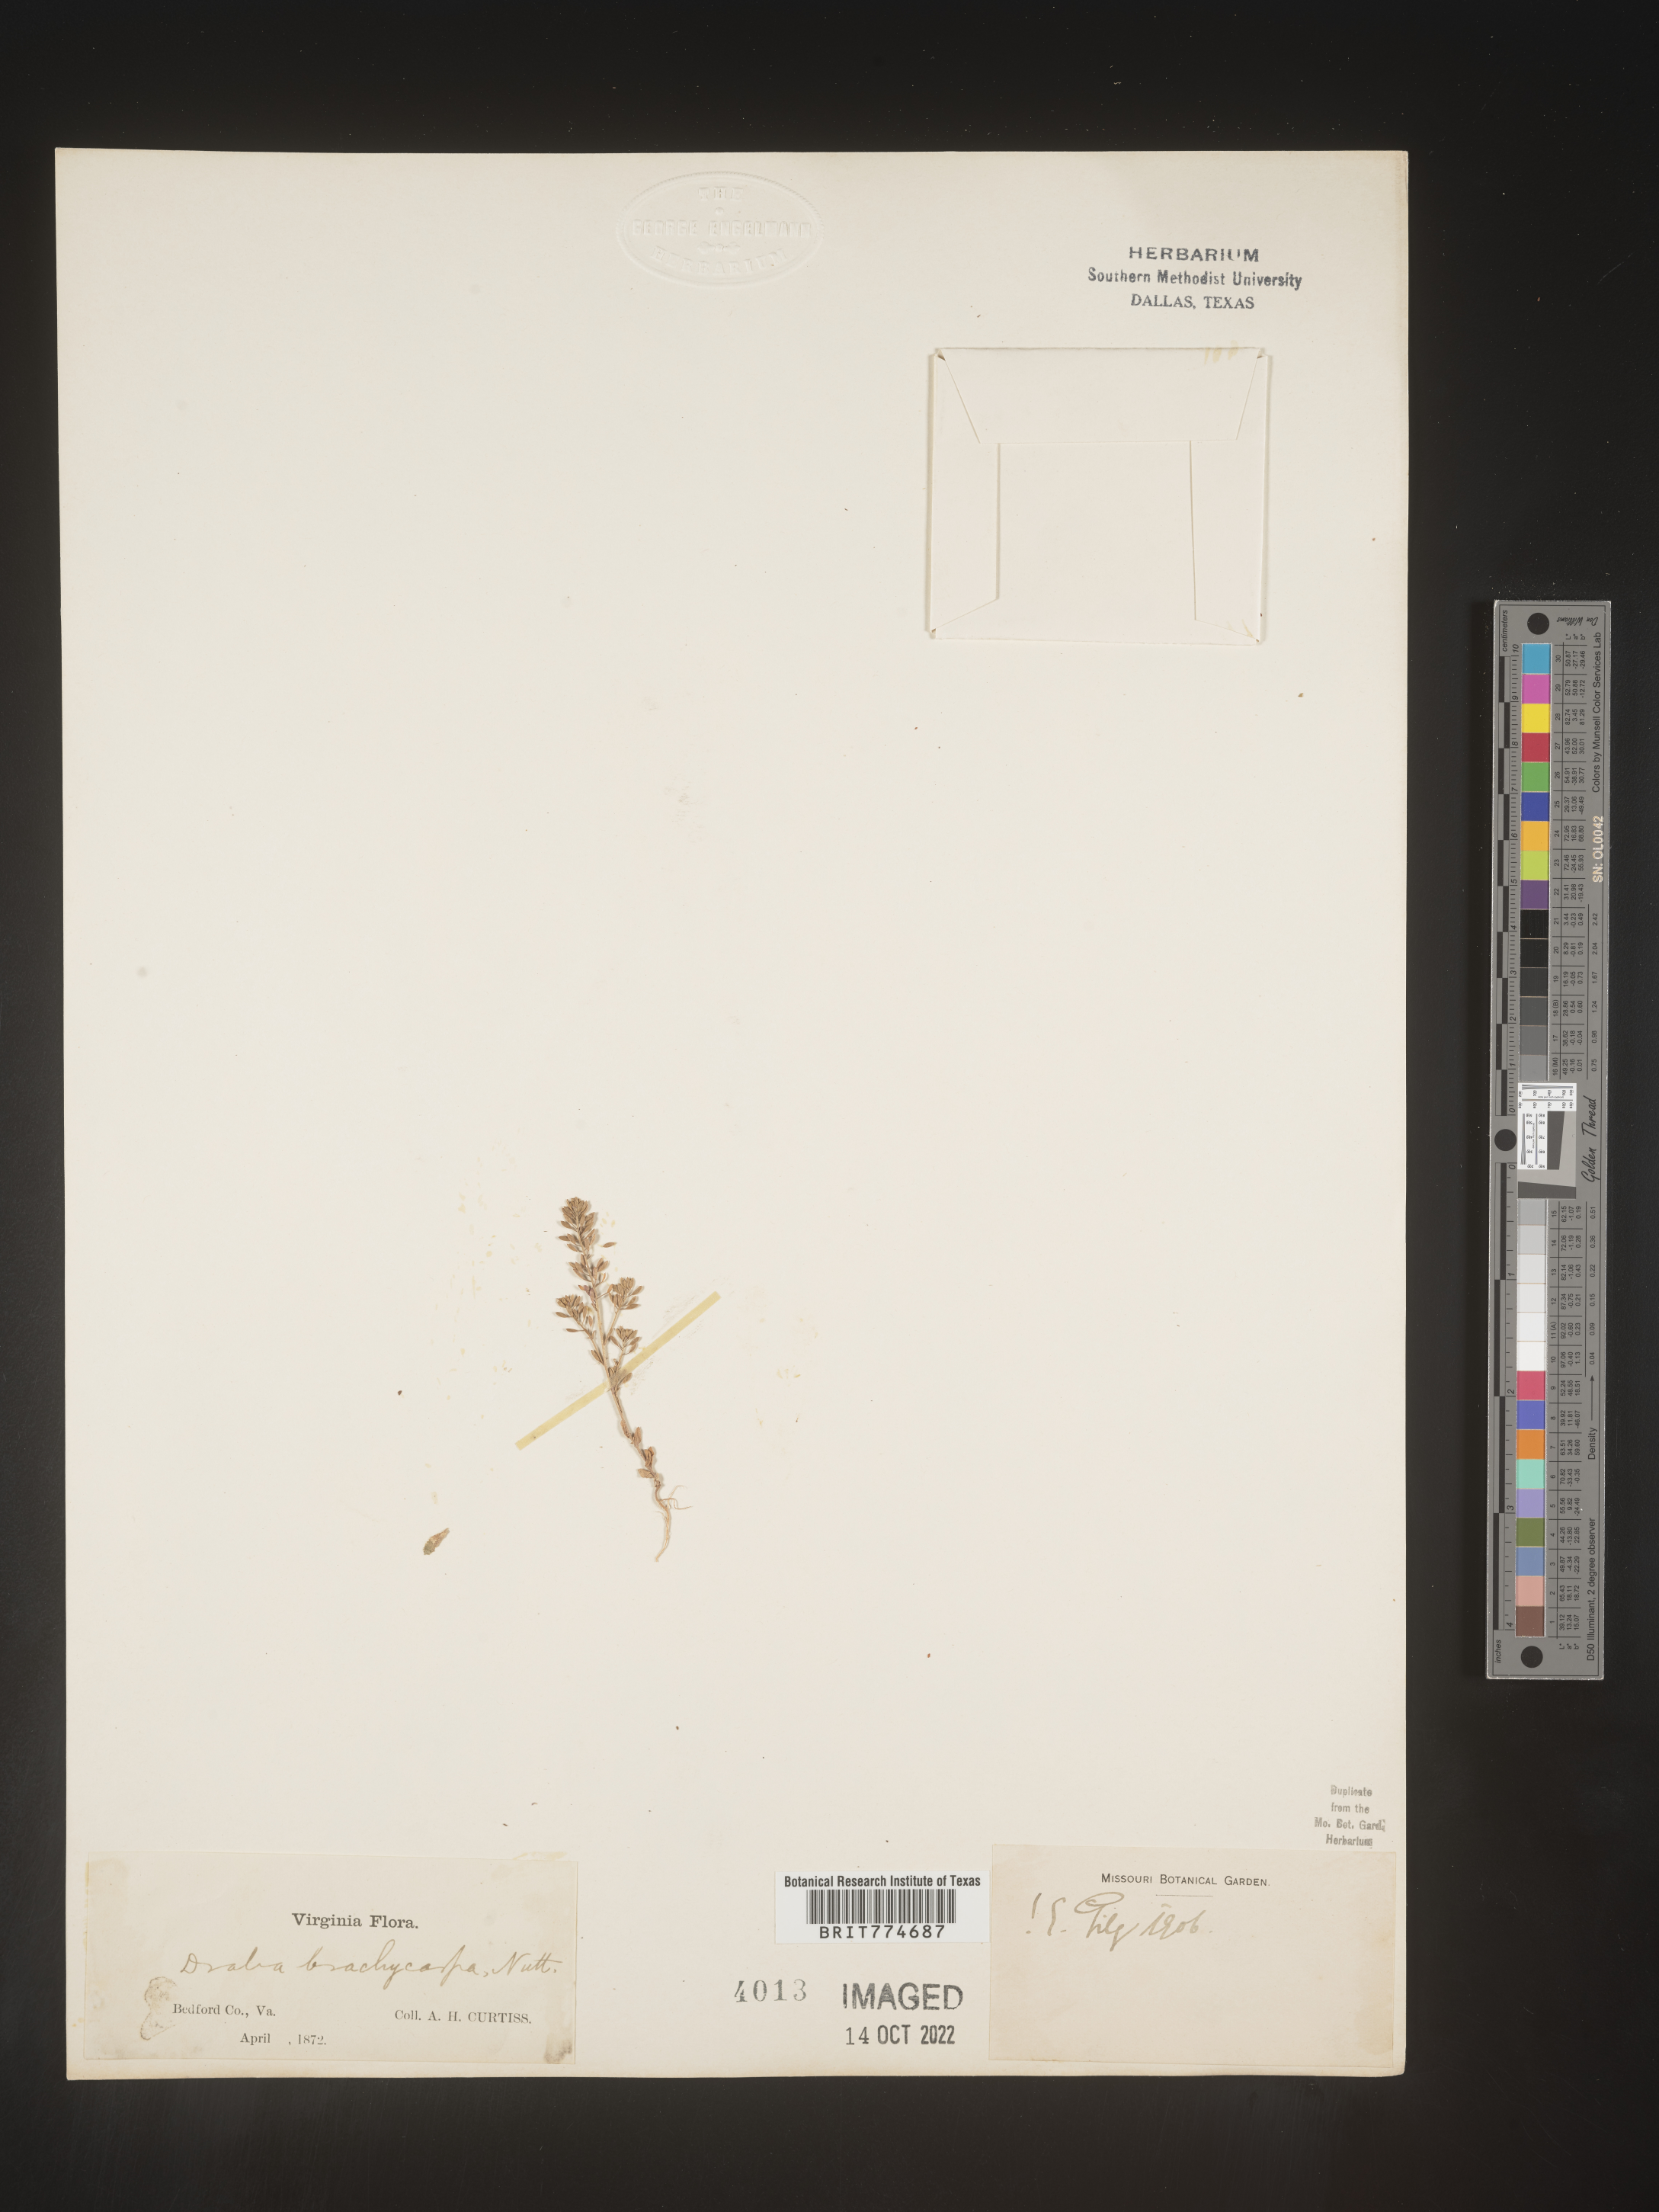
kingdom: Plantae
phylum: Tracheophyta
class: Magnoliopsida
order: Brassicales
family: Brassicaceae
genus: Abdra
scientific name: Abdra brachycarpa
